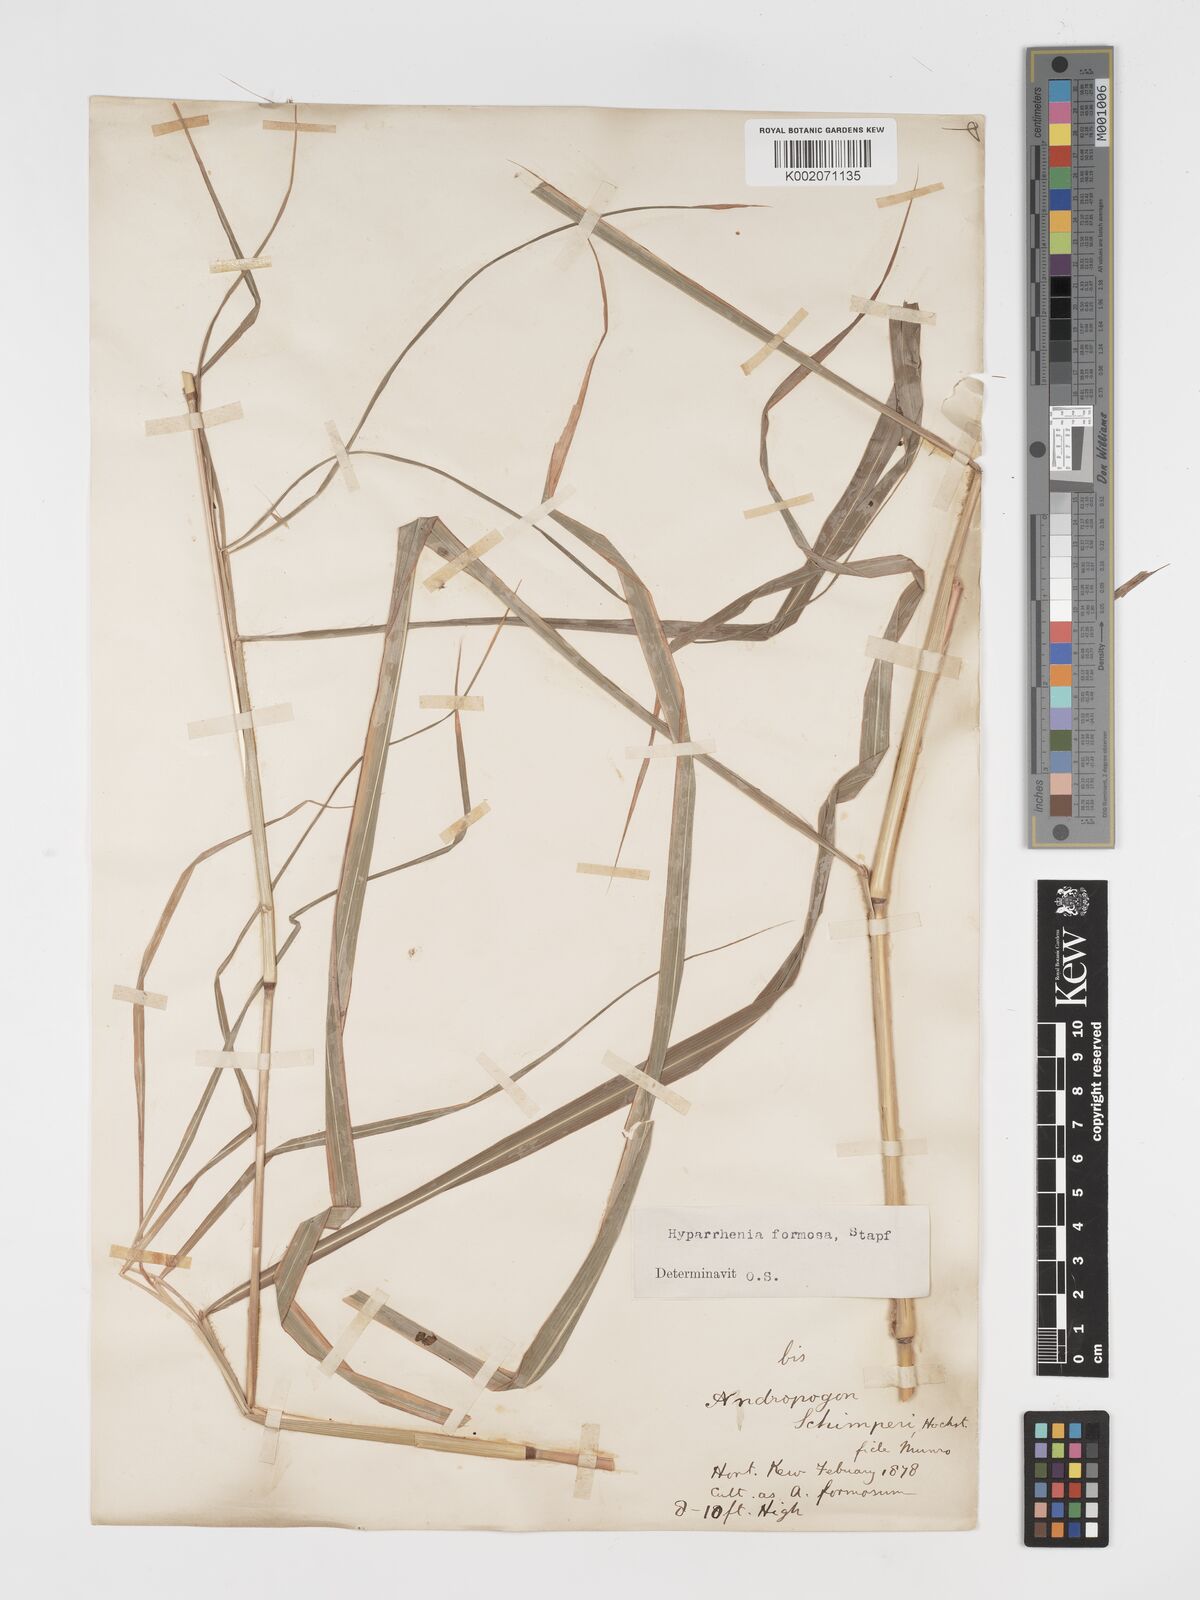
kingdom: Plantae
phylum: Tracheophyta
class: Liliopsida
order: Poales
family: Poaceae
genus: Hyparrhenia
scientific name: Hyparrhenia
